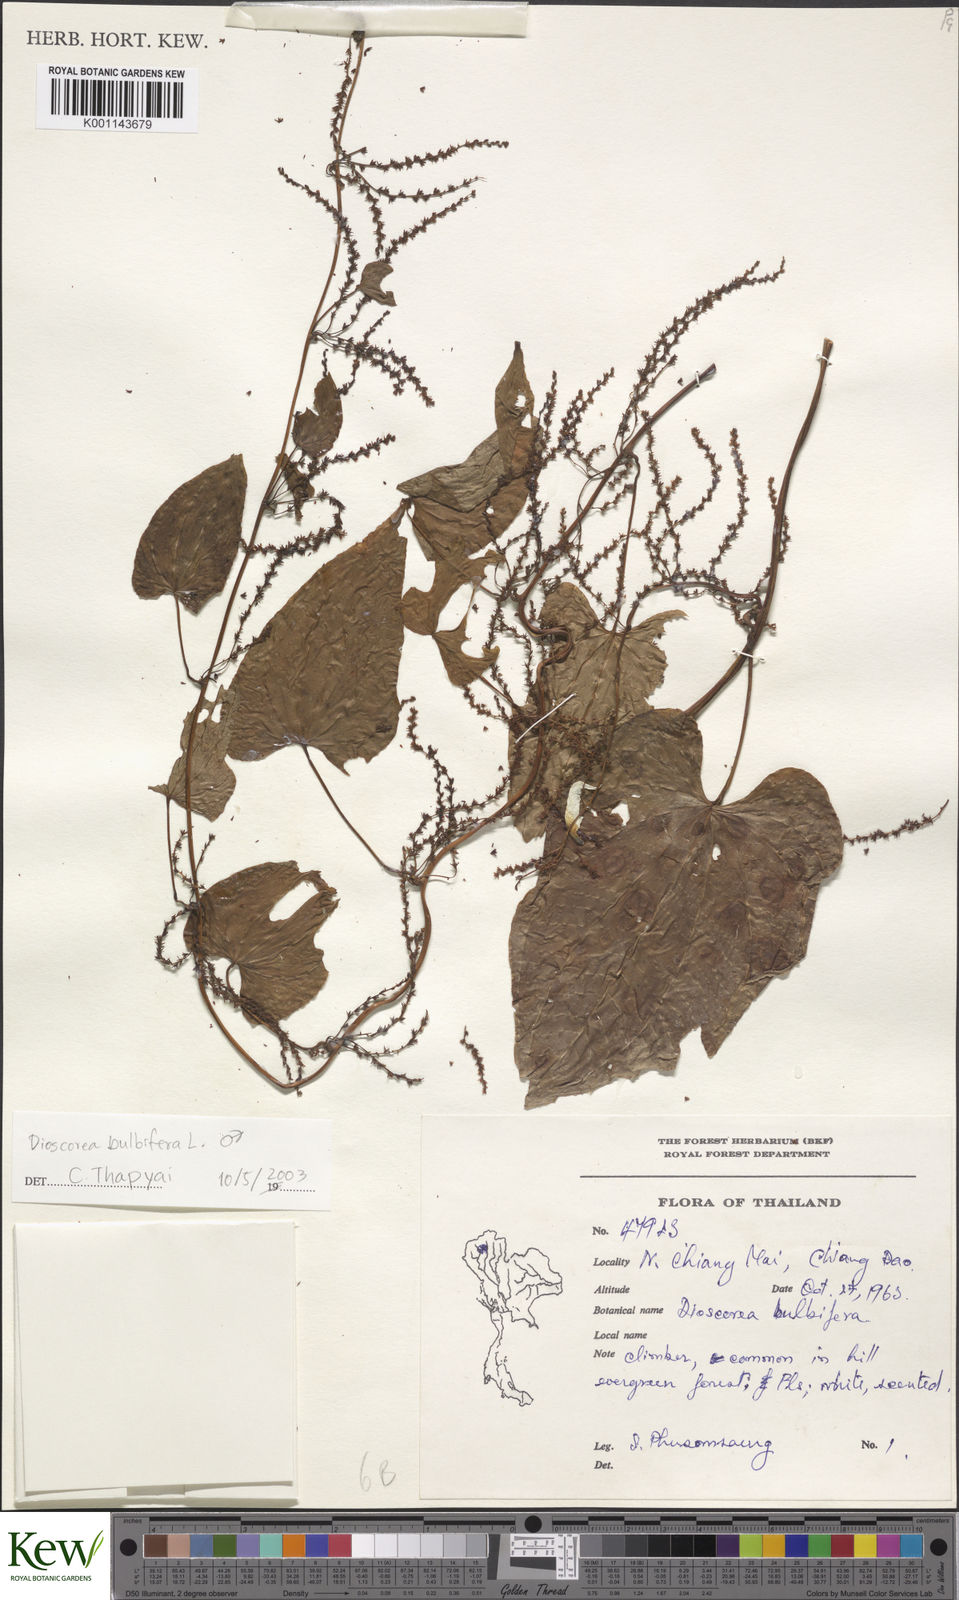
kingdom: Plantae
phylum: Tracheophyta
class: Liliopsida
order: Dioscoreales
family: Dioscoreaceae
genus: Dioscorea
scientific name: Dioscorea bulbifera
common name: Air yam
